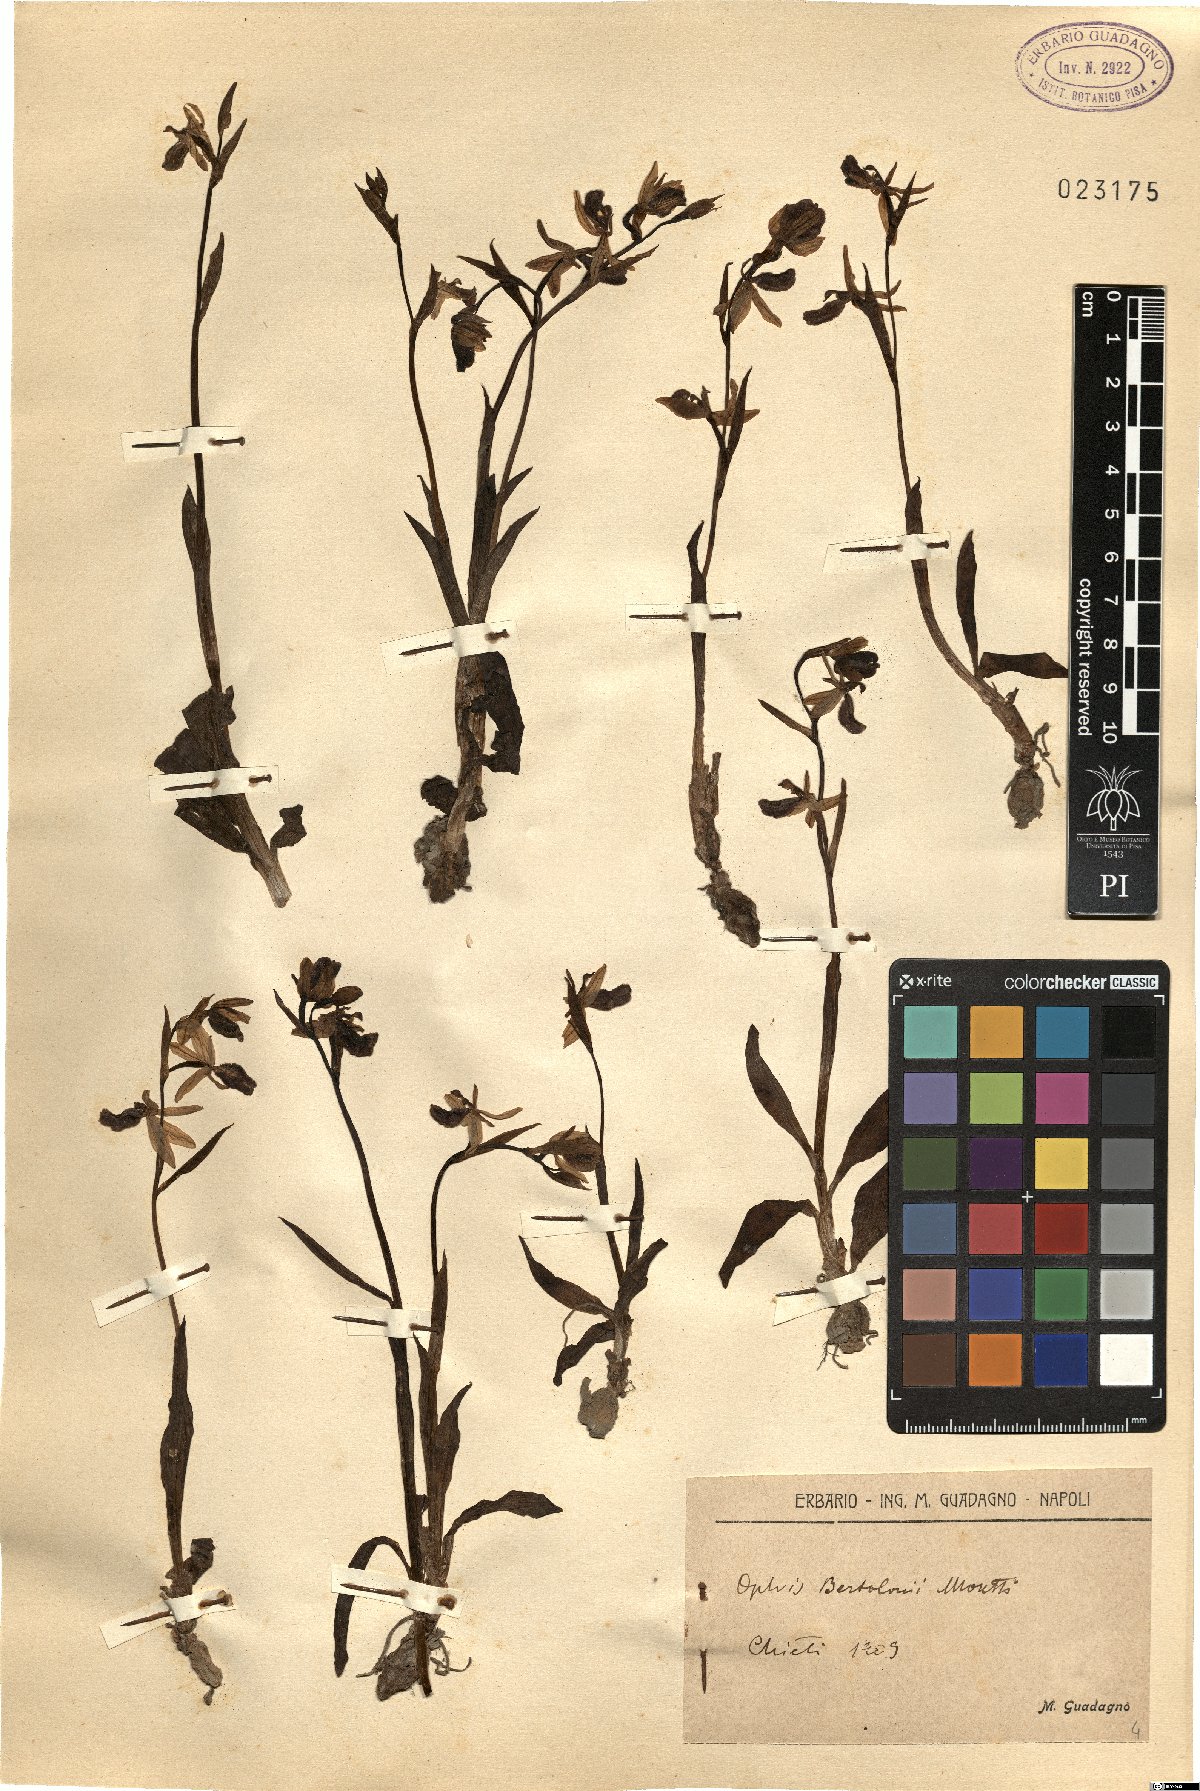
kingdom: Plantae
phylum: Tracheophyta
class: Liliopsida
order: Asparagales
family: Orchidaceae
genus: Ophrys
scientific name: Ophrys bertolonii
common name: Bertoloni's bee orchid
